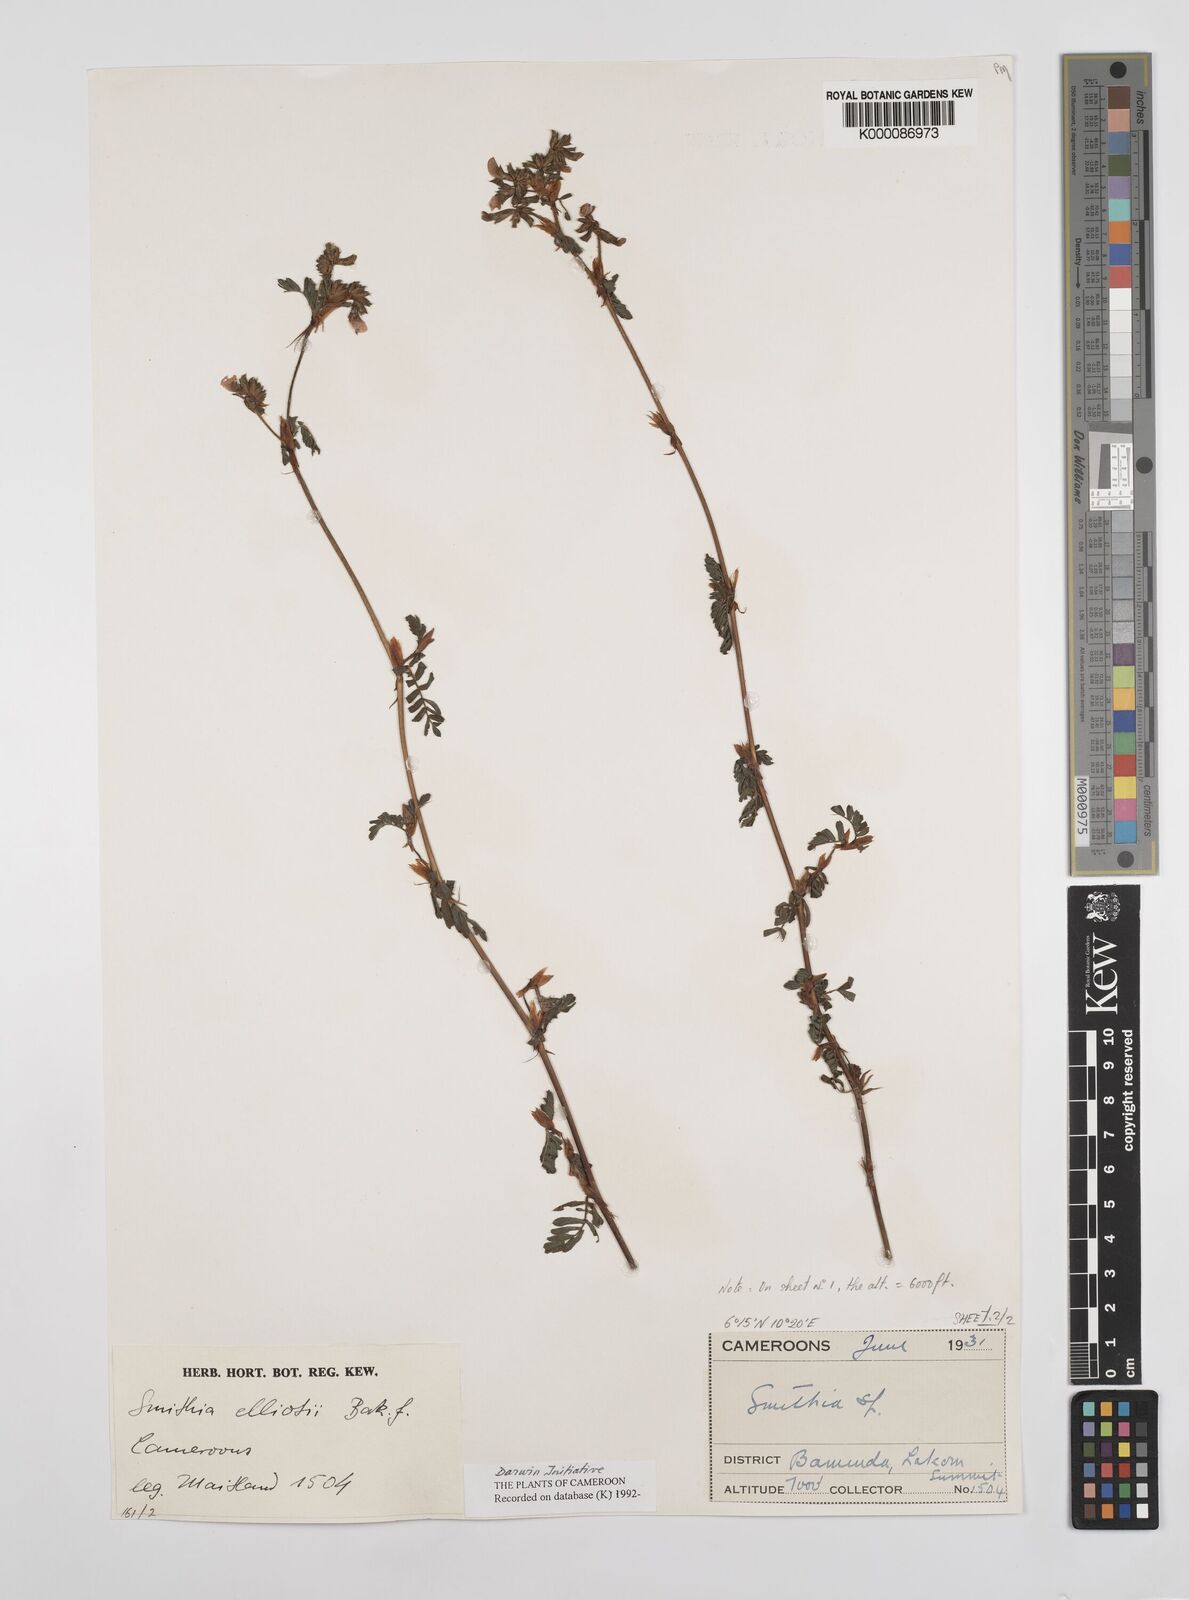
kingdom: Plantae
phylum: Tracheophyta
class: Magnoliopsida
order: Fabales
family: Fabaceae
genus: Smithia
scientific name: Smithia elliotii
